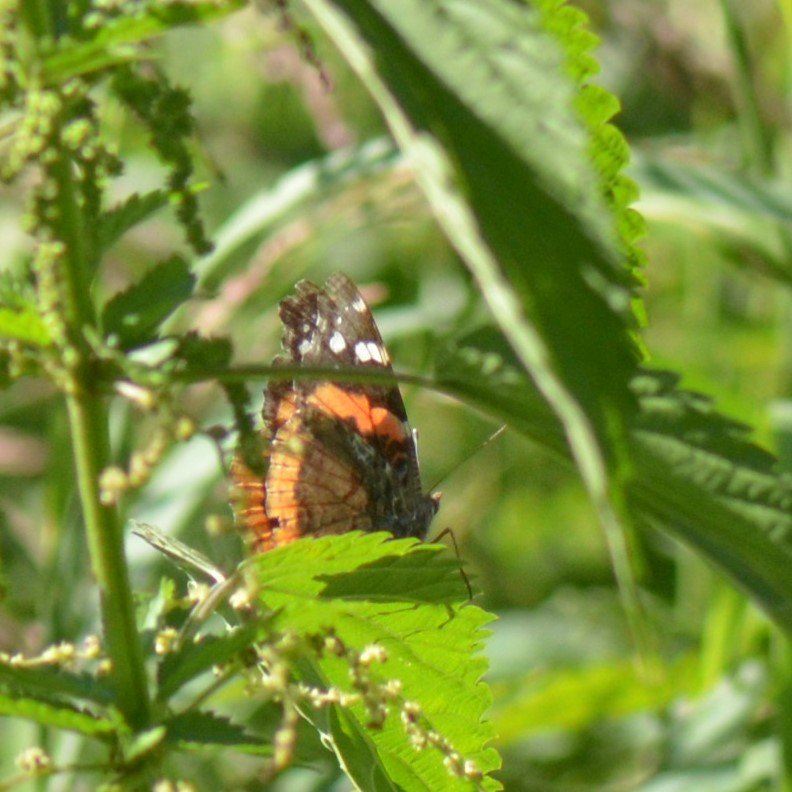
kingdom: Animalia
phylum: Arthropoda
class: Insecta
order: Lepidoptera
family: Nymphalidae
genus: Vanessa
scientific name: Vanessa atalanta
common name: Red Admiral
